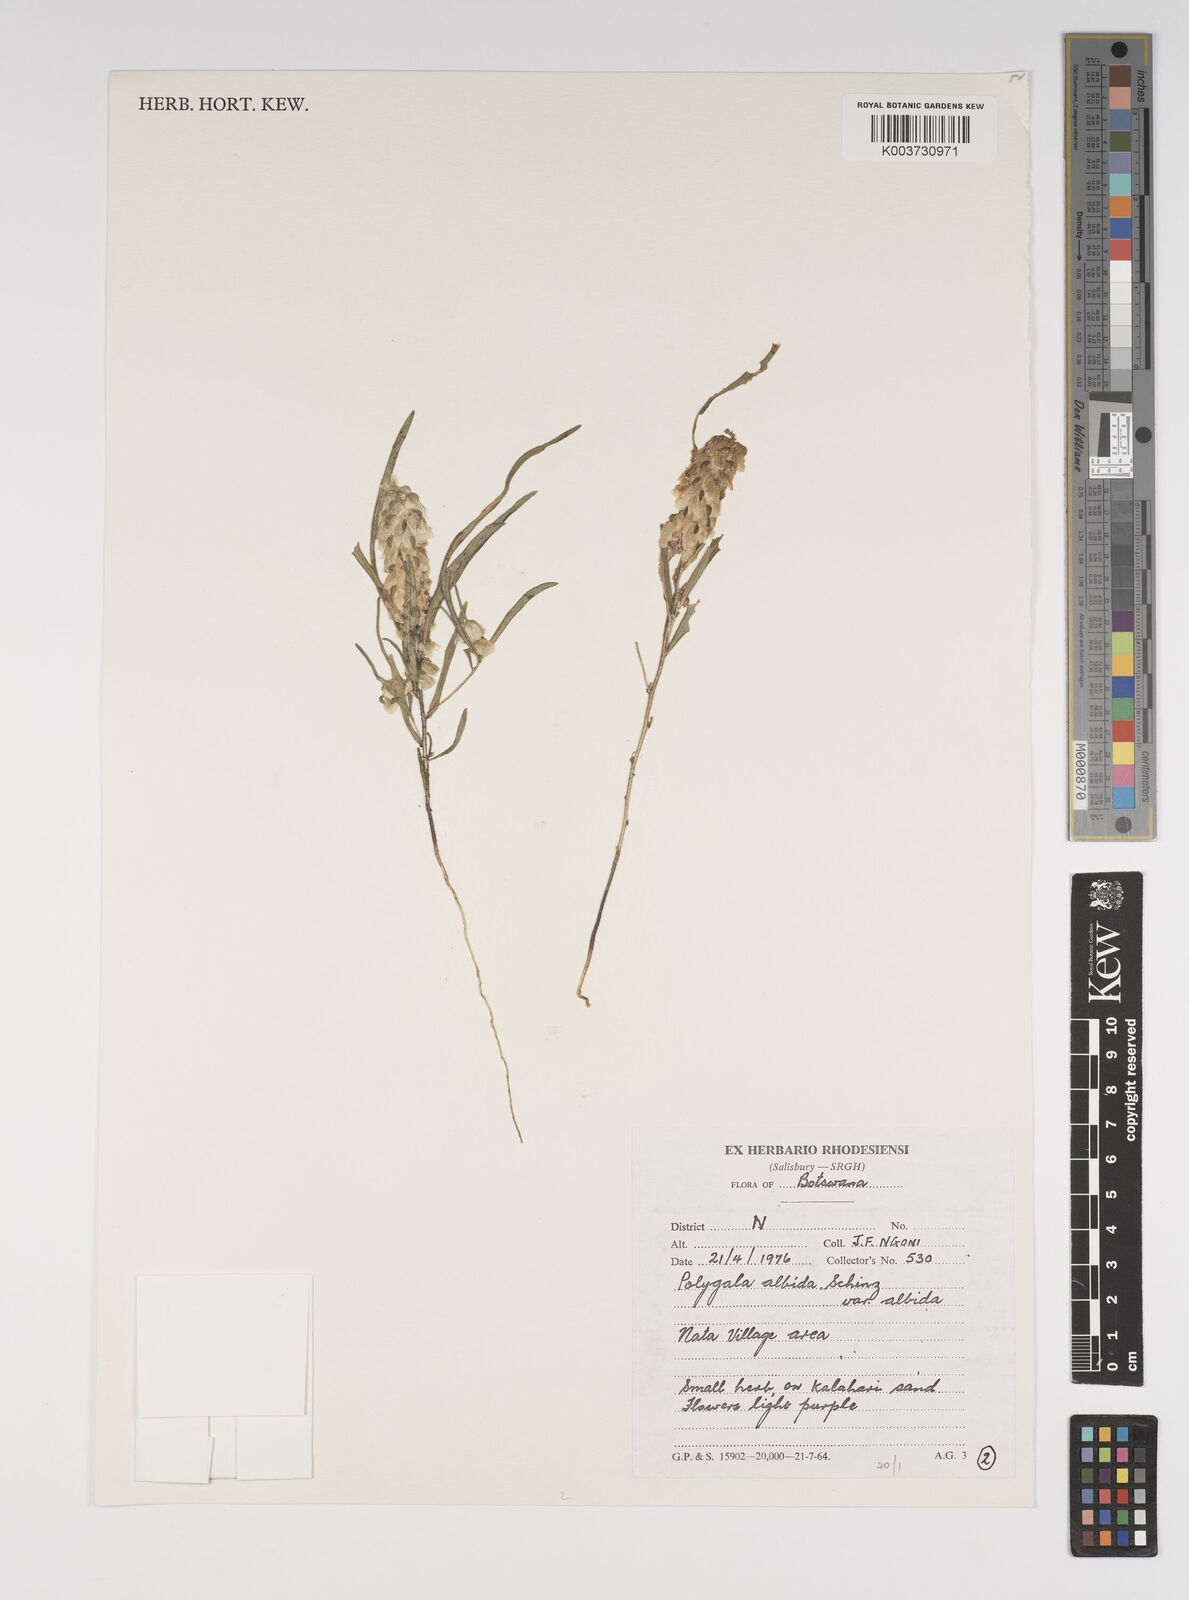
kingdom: Plantae
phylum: Tracheophyta
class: Magnoliopsida
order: Fabales
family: Polygalaceae
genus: Polygala
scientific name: Polygala albida
